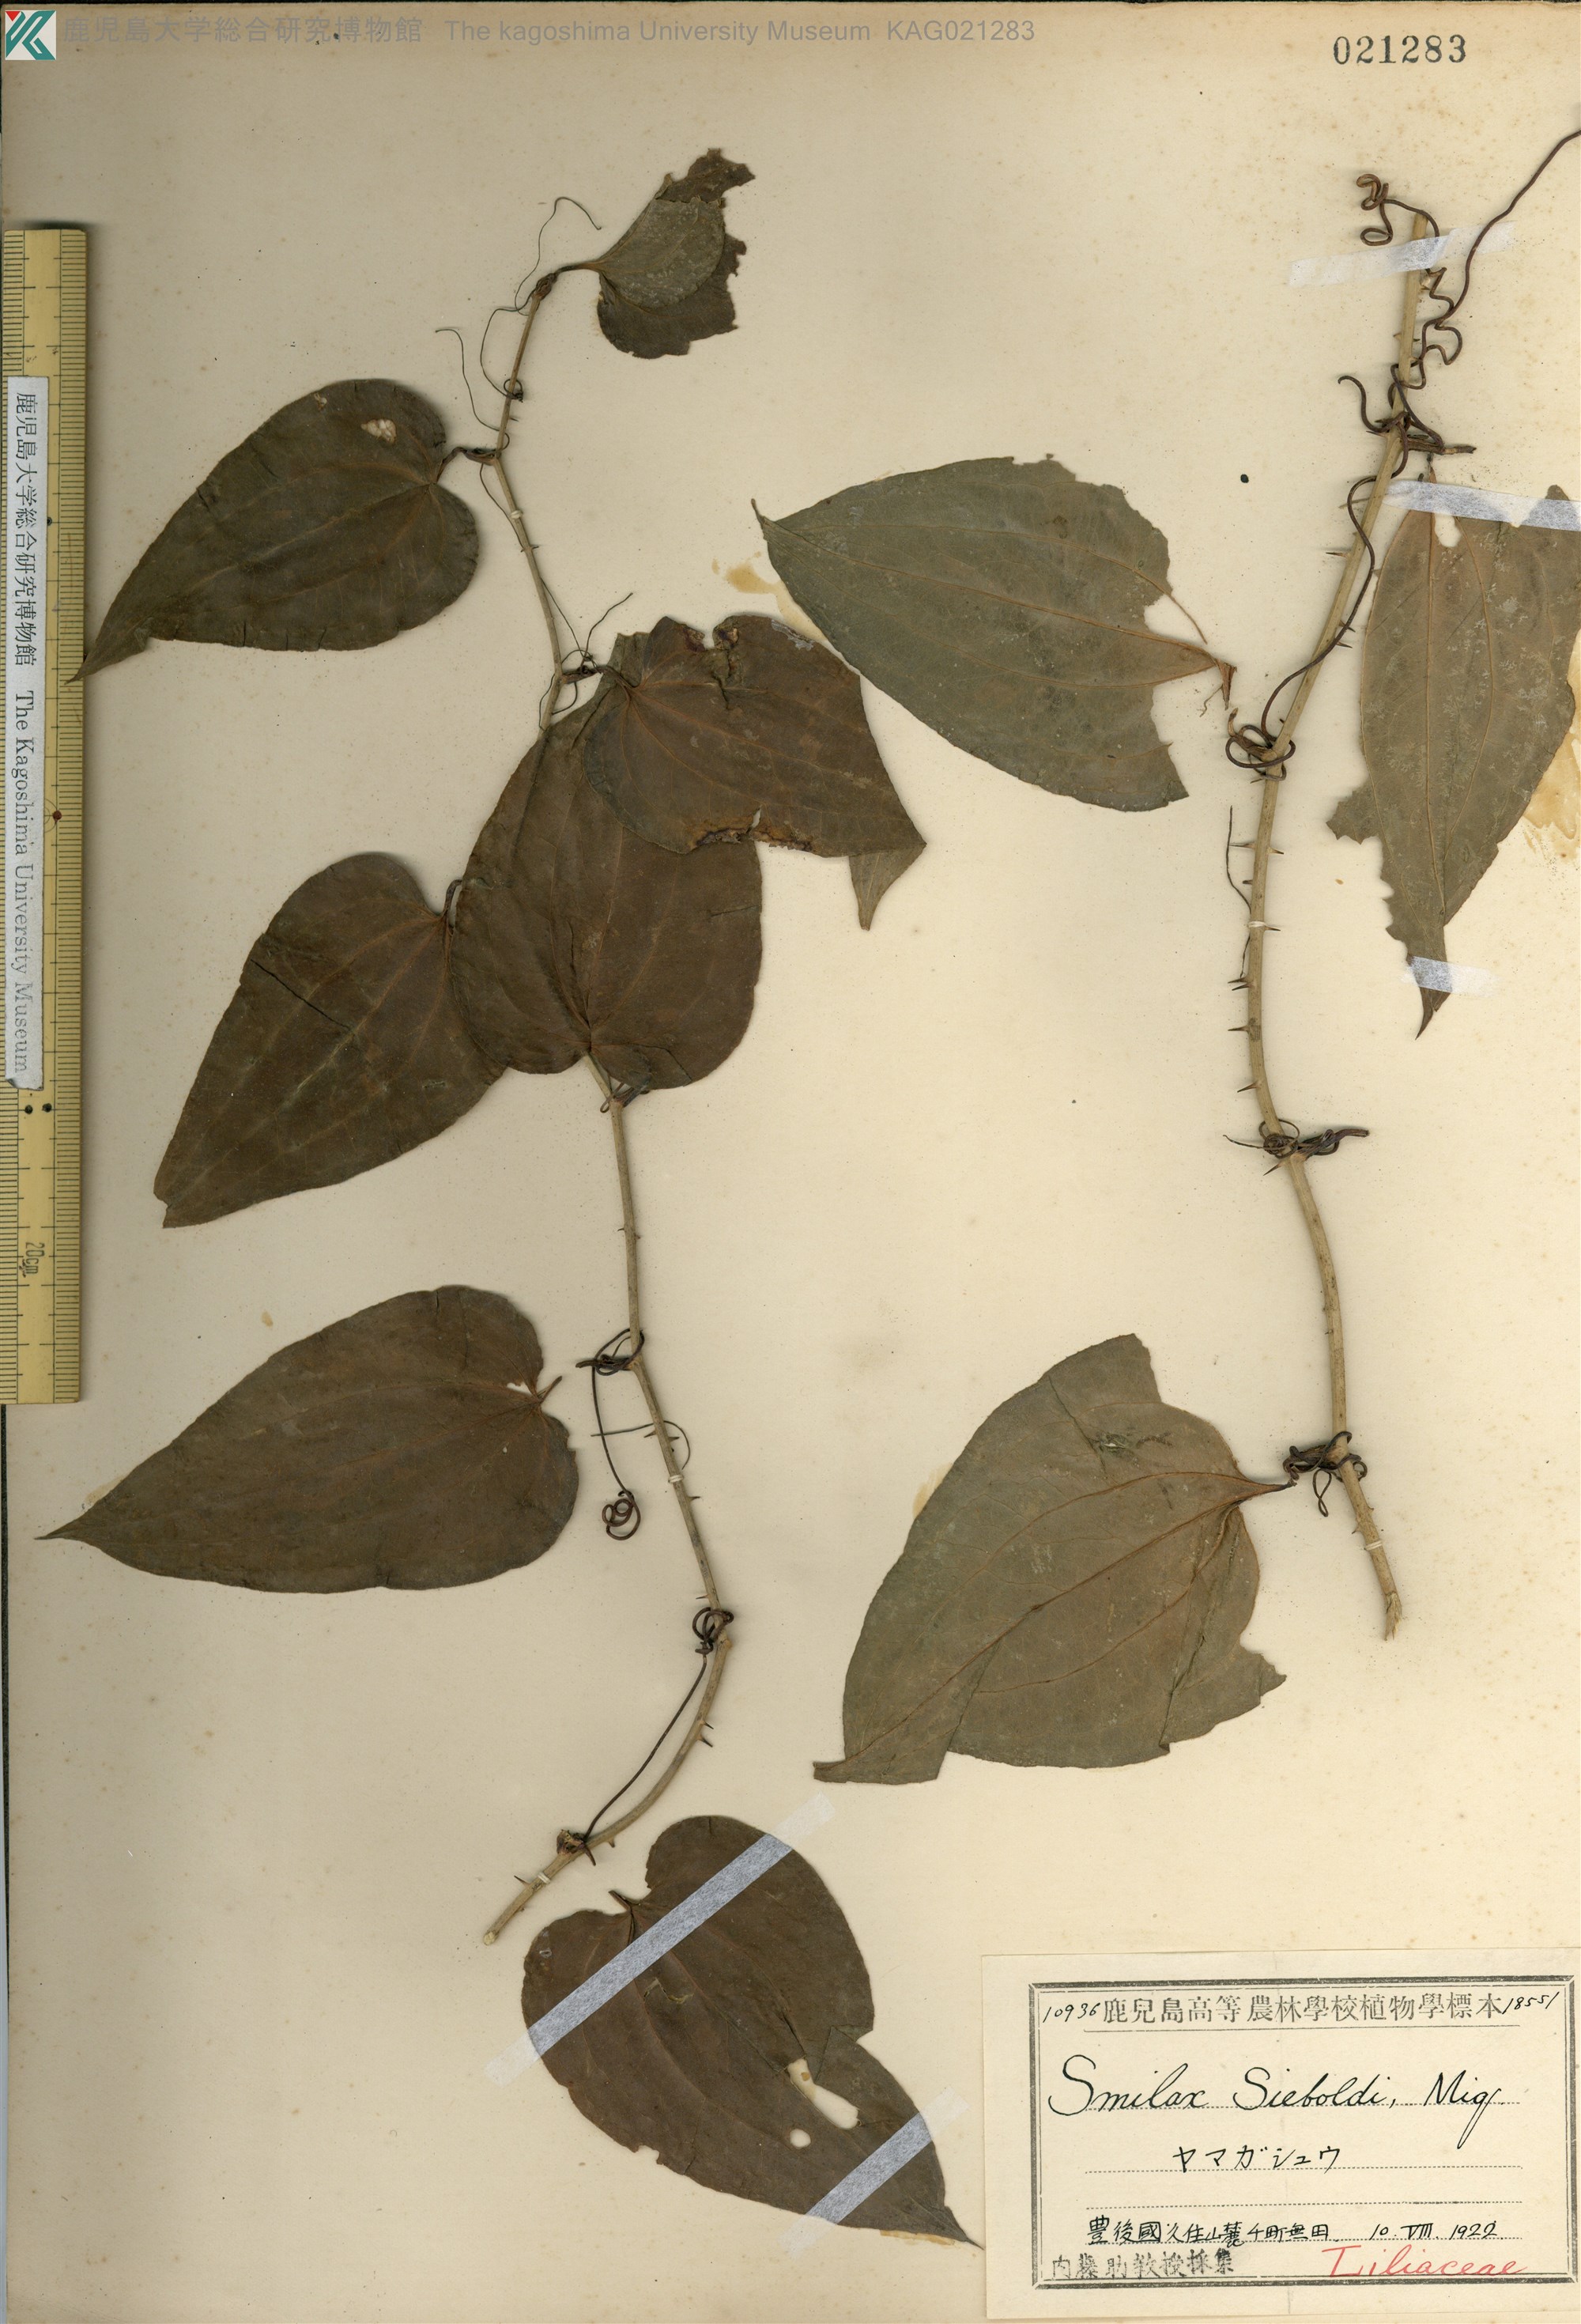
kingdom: Plantae
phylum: Tracheophyta
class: Liliopsida
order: Liliales
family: Smilacaceae
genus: Smilax
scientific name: Smilax sieboldii
